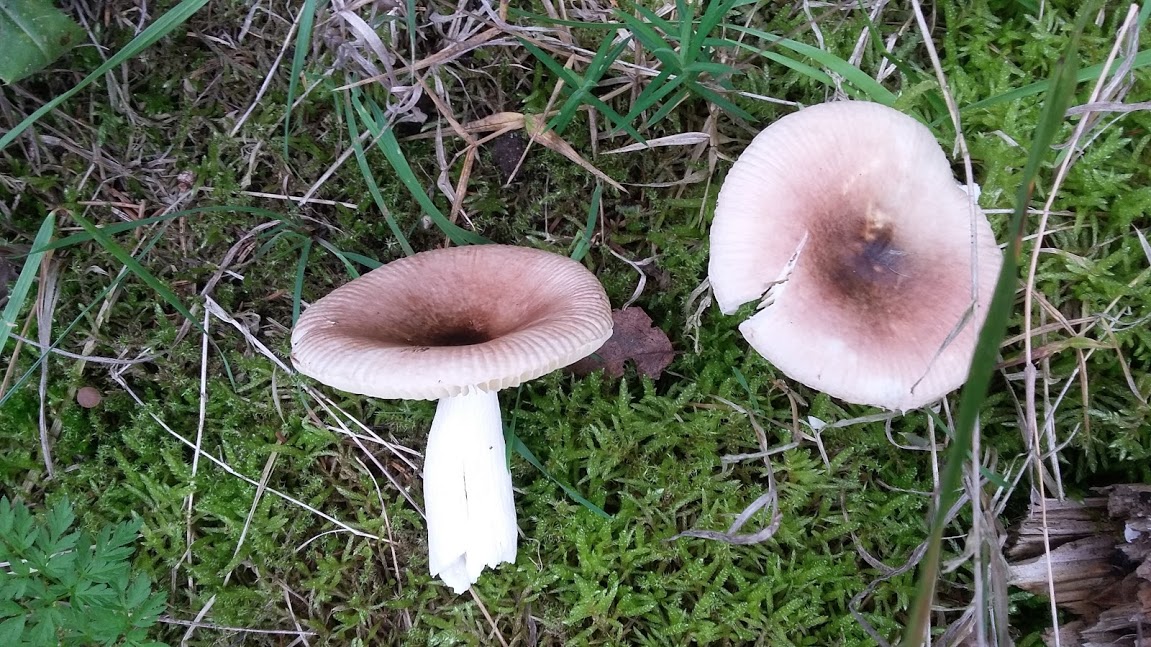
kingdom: Fungi
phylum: Basidiomycota
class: Agaricomycetes
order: Russulales
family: Russulaceae
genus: Russula
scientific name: Russula
